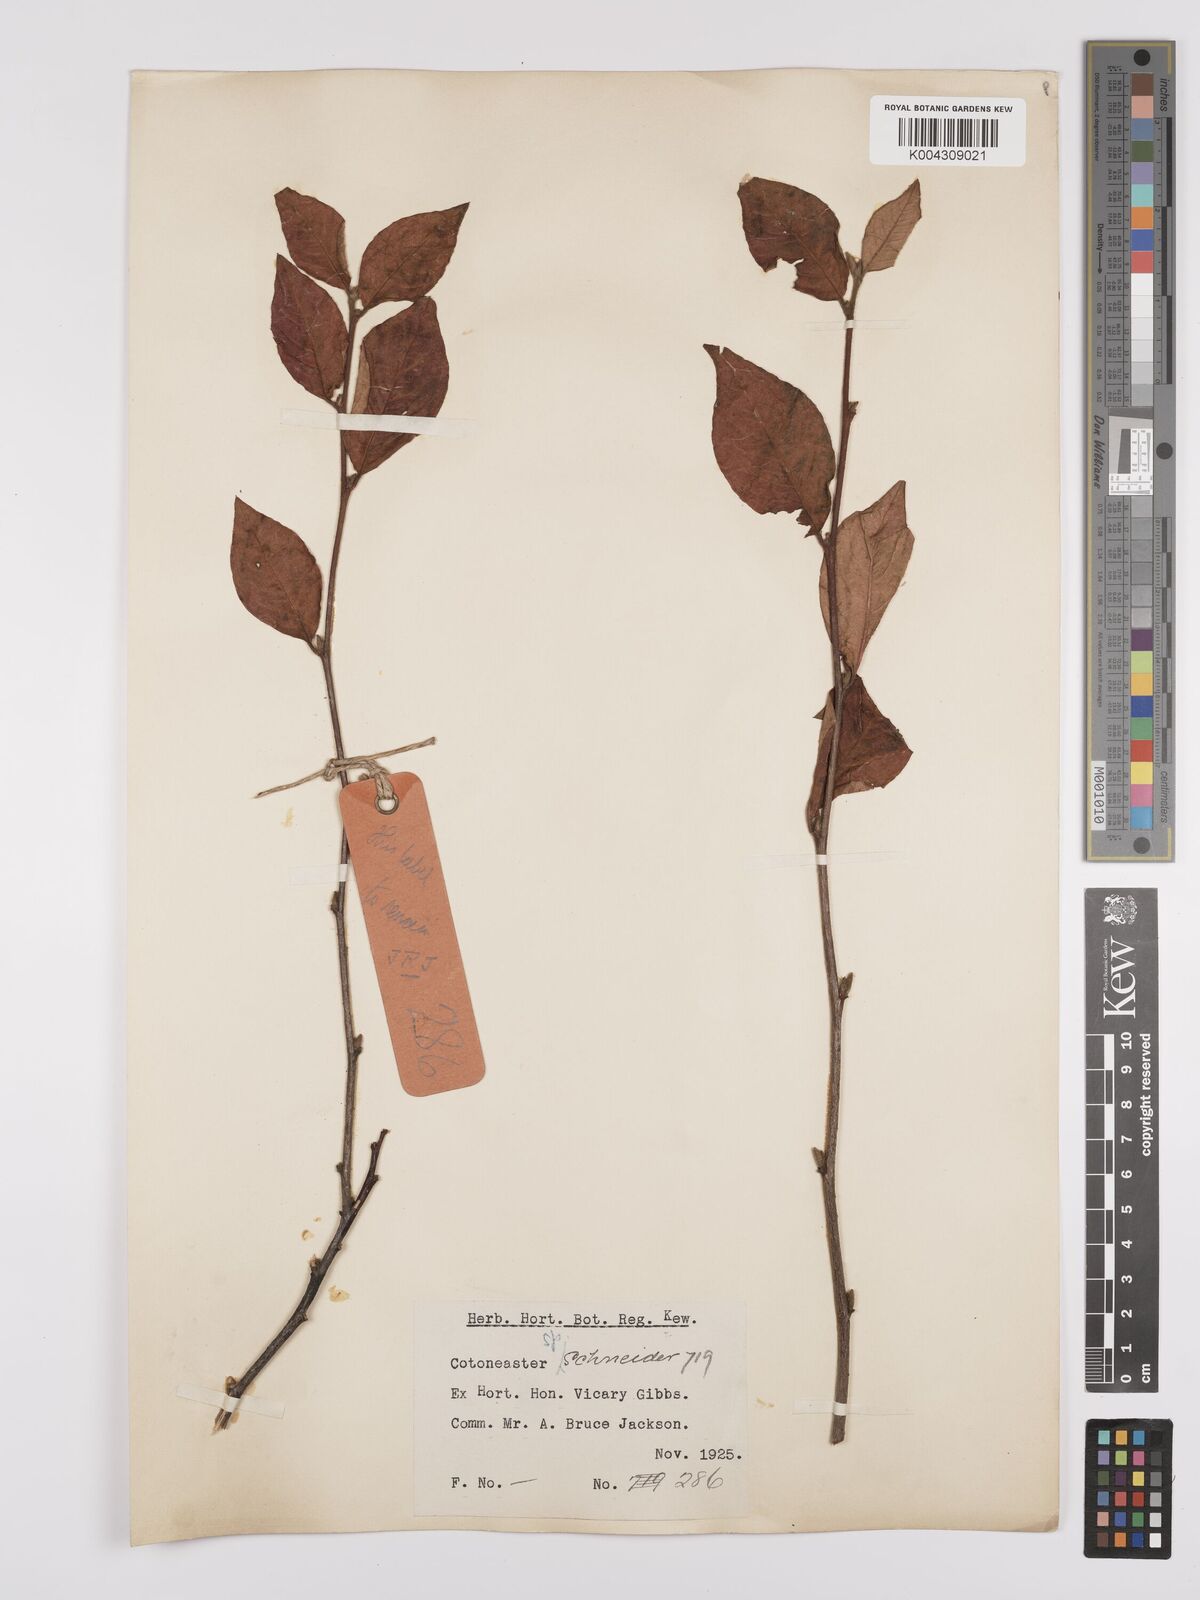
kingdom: Plantae
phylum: Tracheophyta
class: Magnoliopsida
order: Rosales
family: Rosaceae
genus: Cotoneaster
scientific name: Cotoneaster
